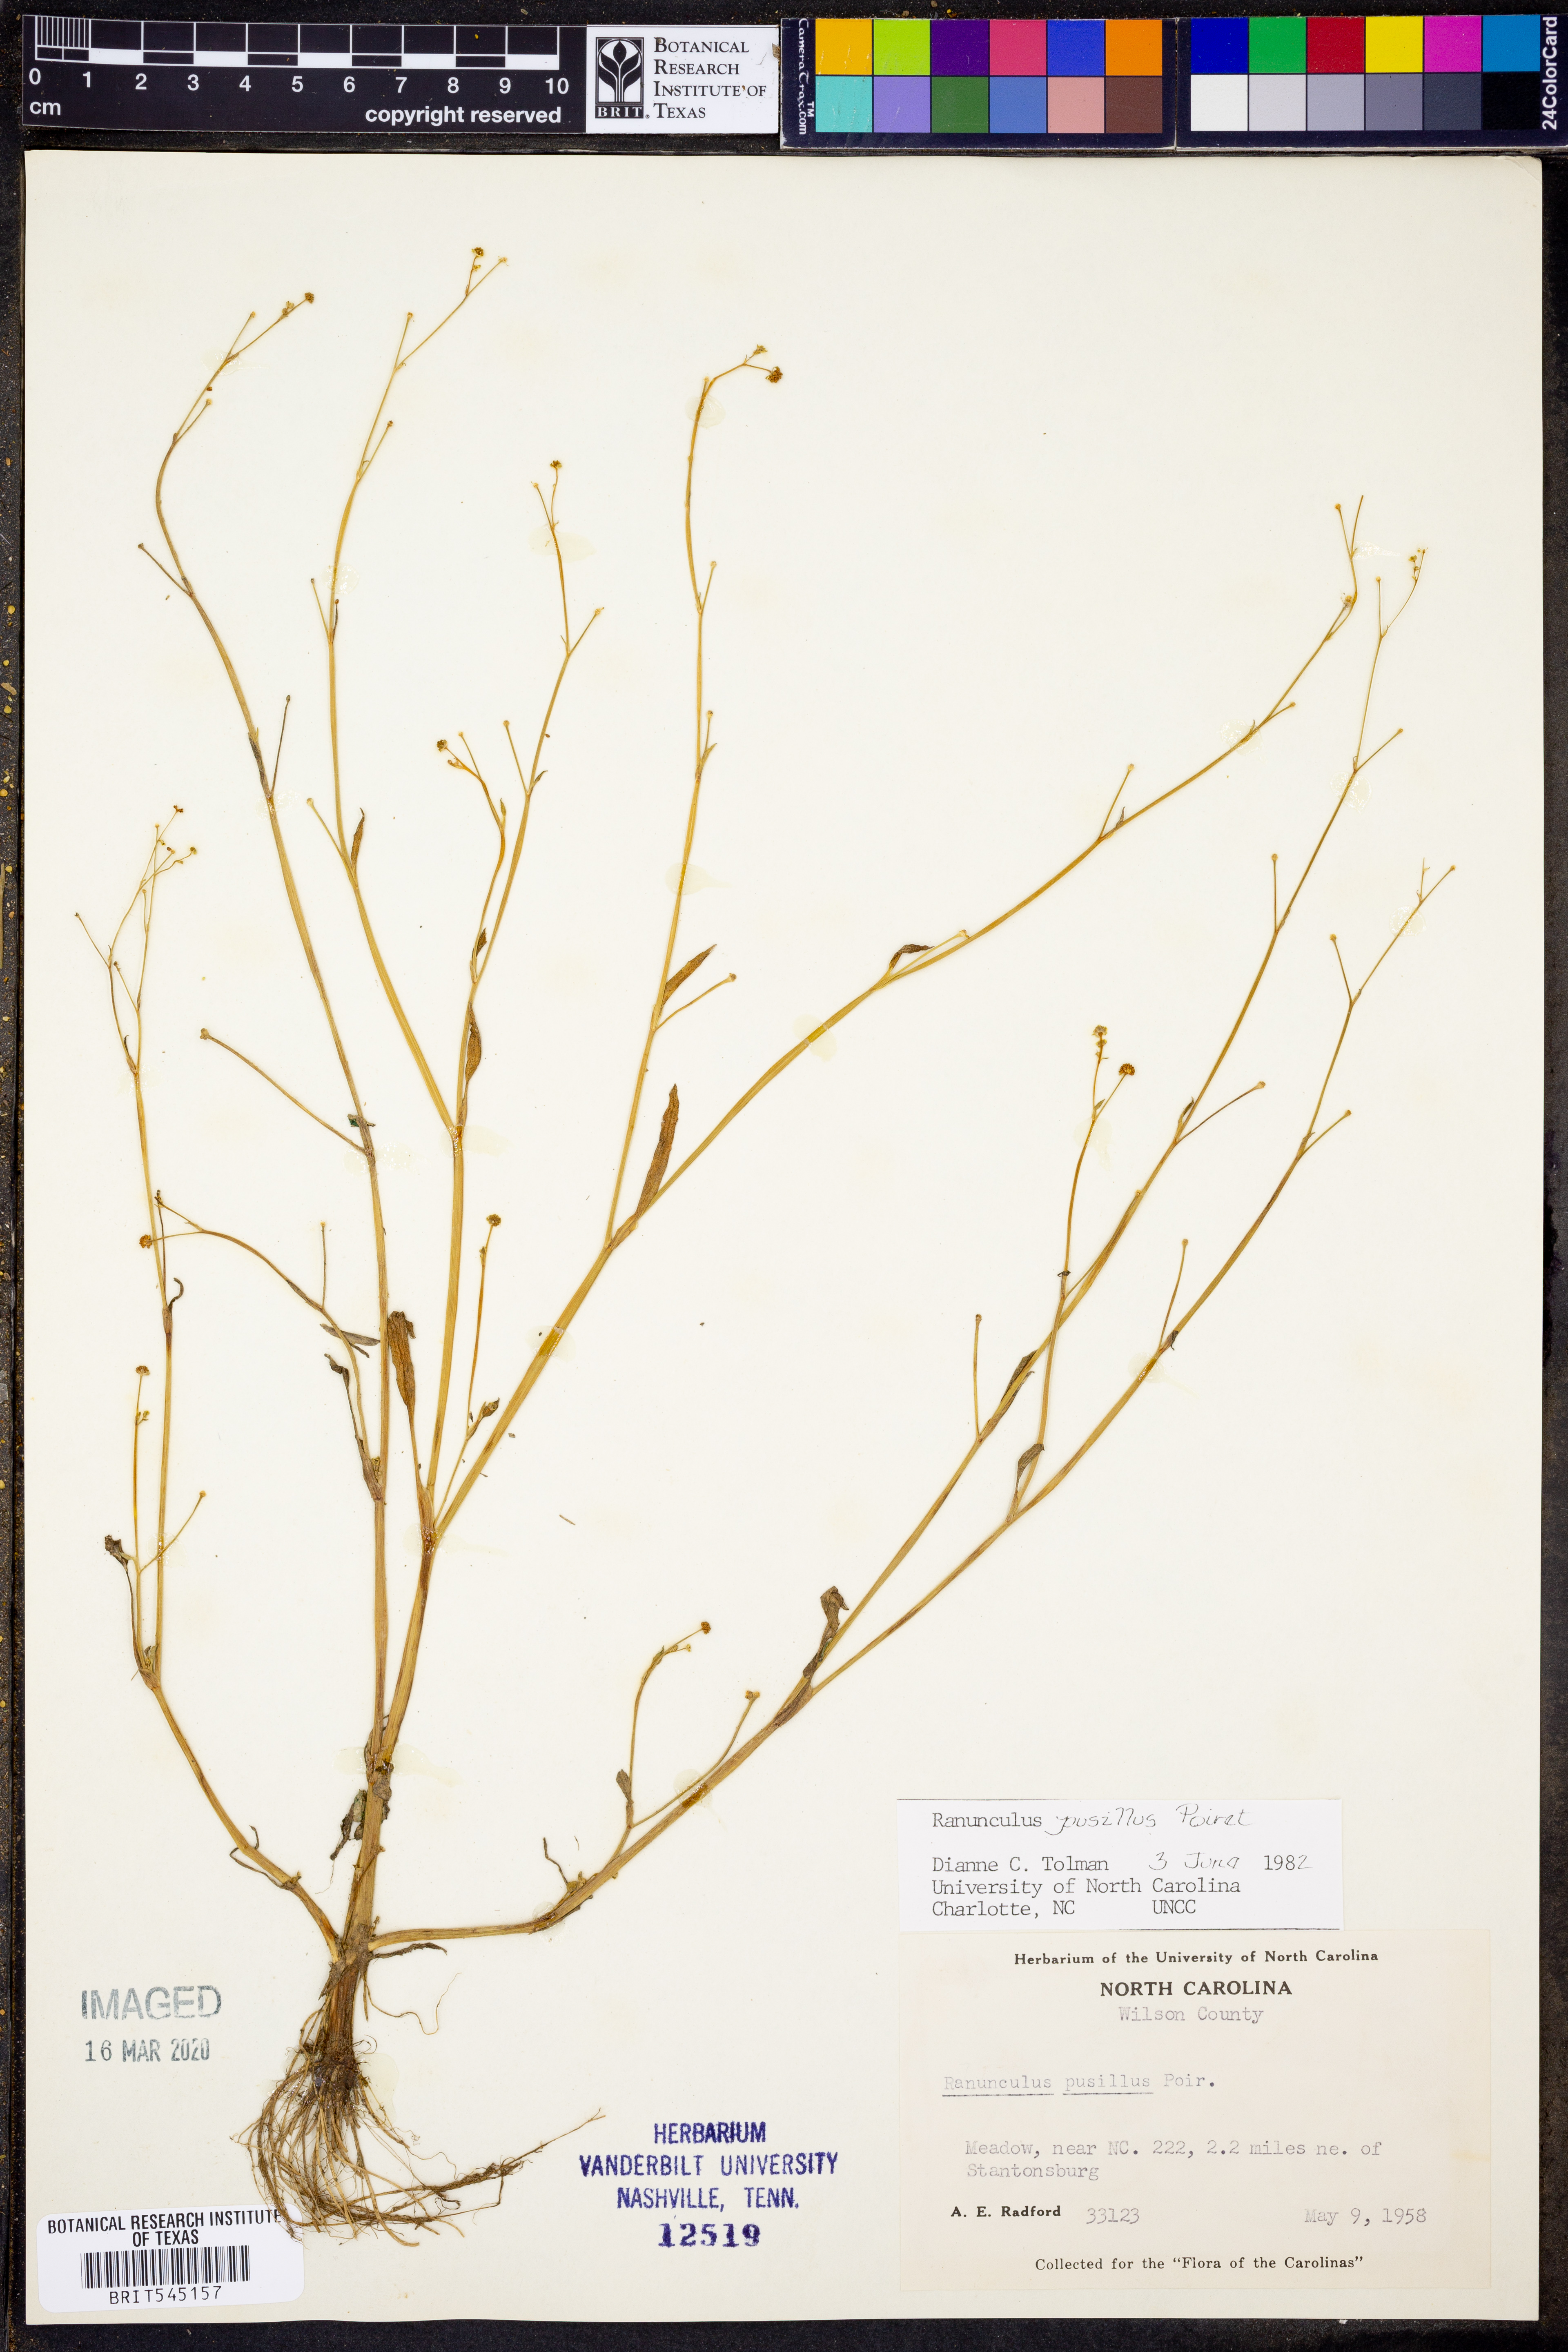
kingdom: Plantae
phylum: Tracheophyta
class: Magnoliopsida
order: Ranunculales
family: Ranunculaceae
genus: Ranunculus
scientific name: Ranunculus pusillus
